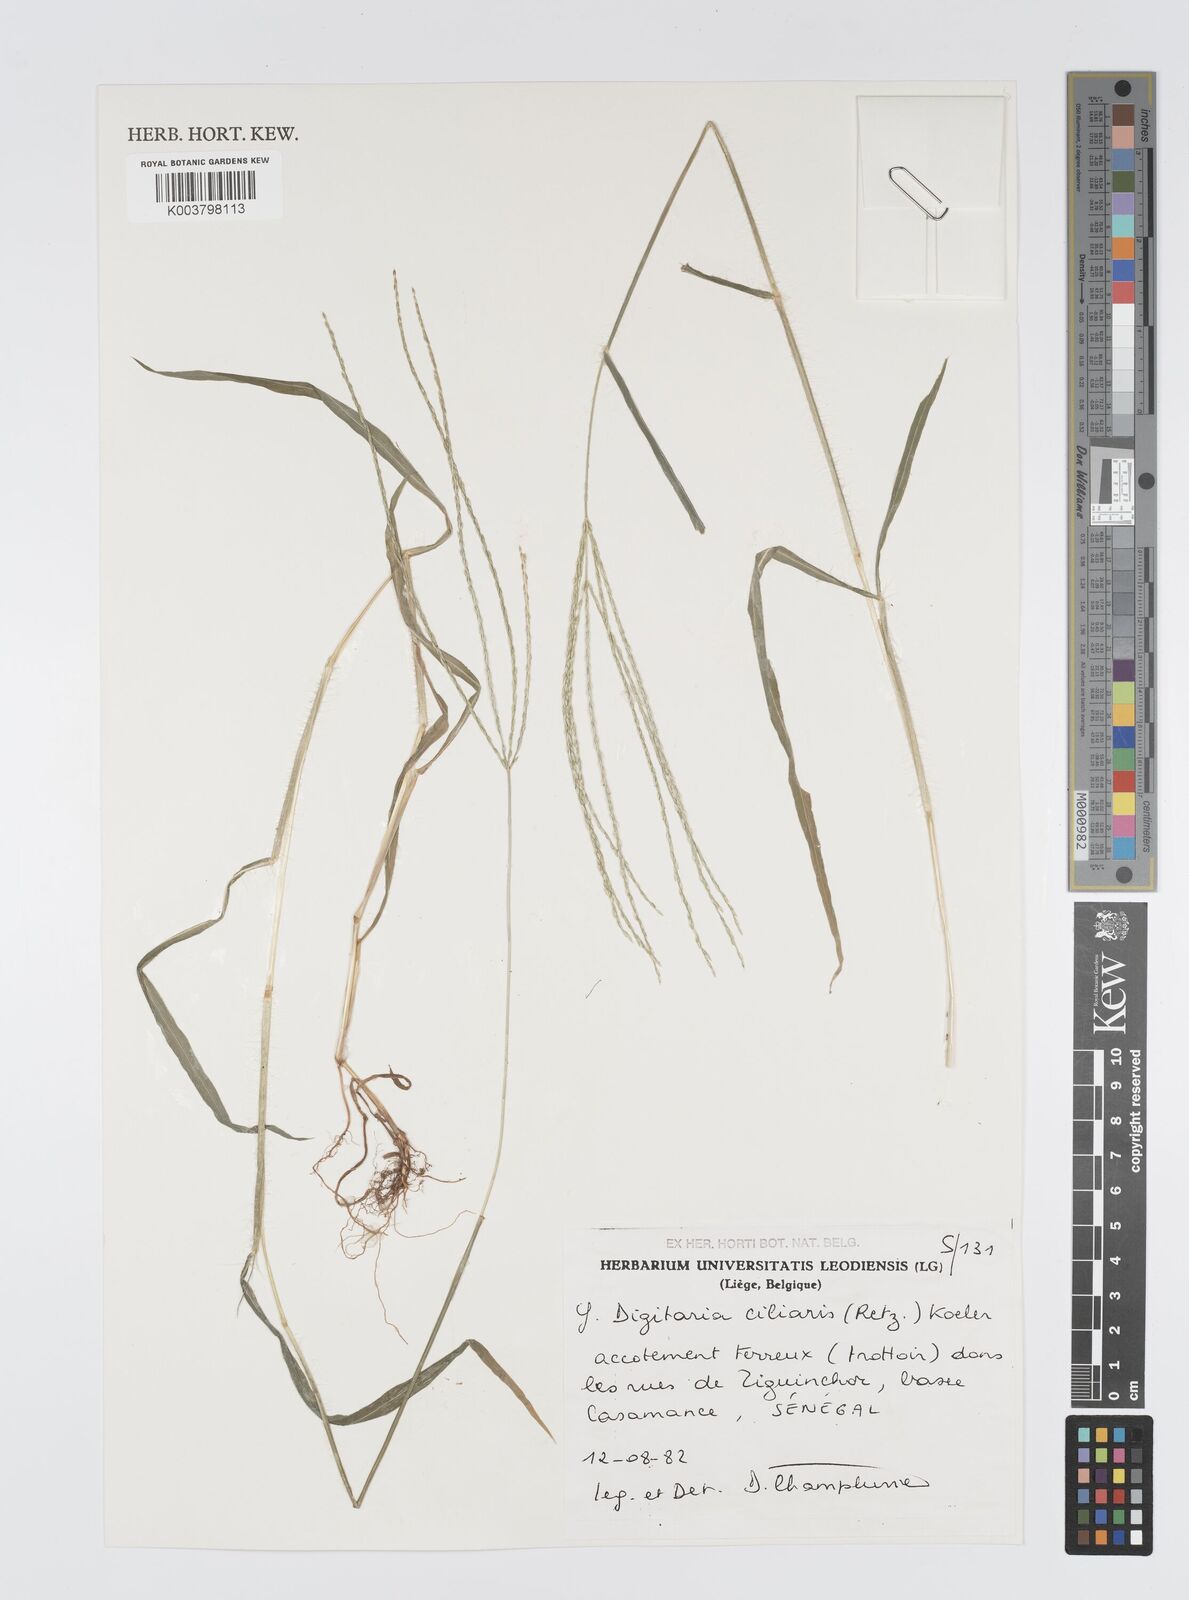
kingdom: Plantae
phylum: Tracheophyta
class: Liliopsida
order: Poales
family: Poaceae
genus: Digitaria
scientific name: Digitaria
